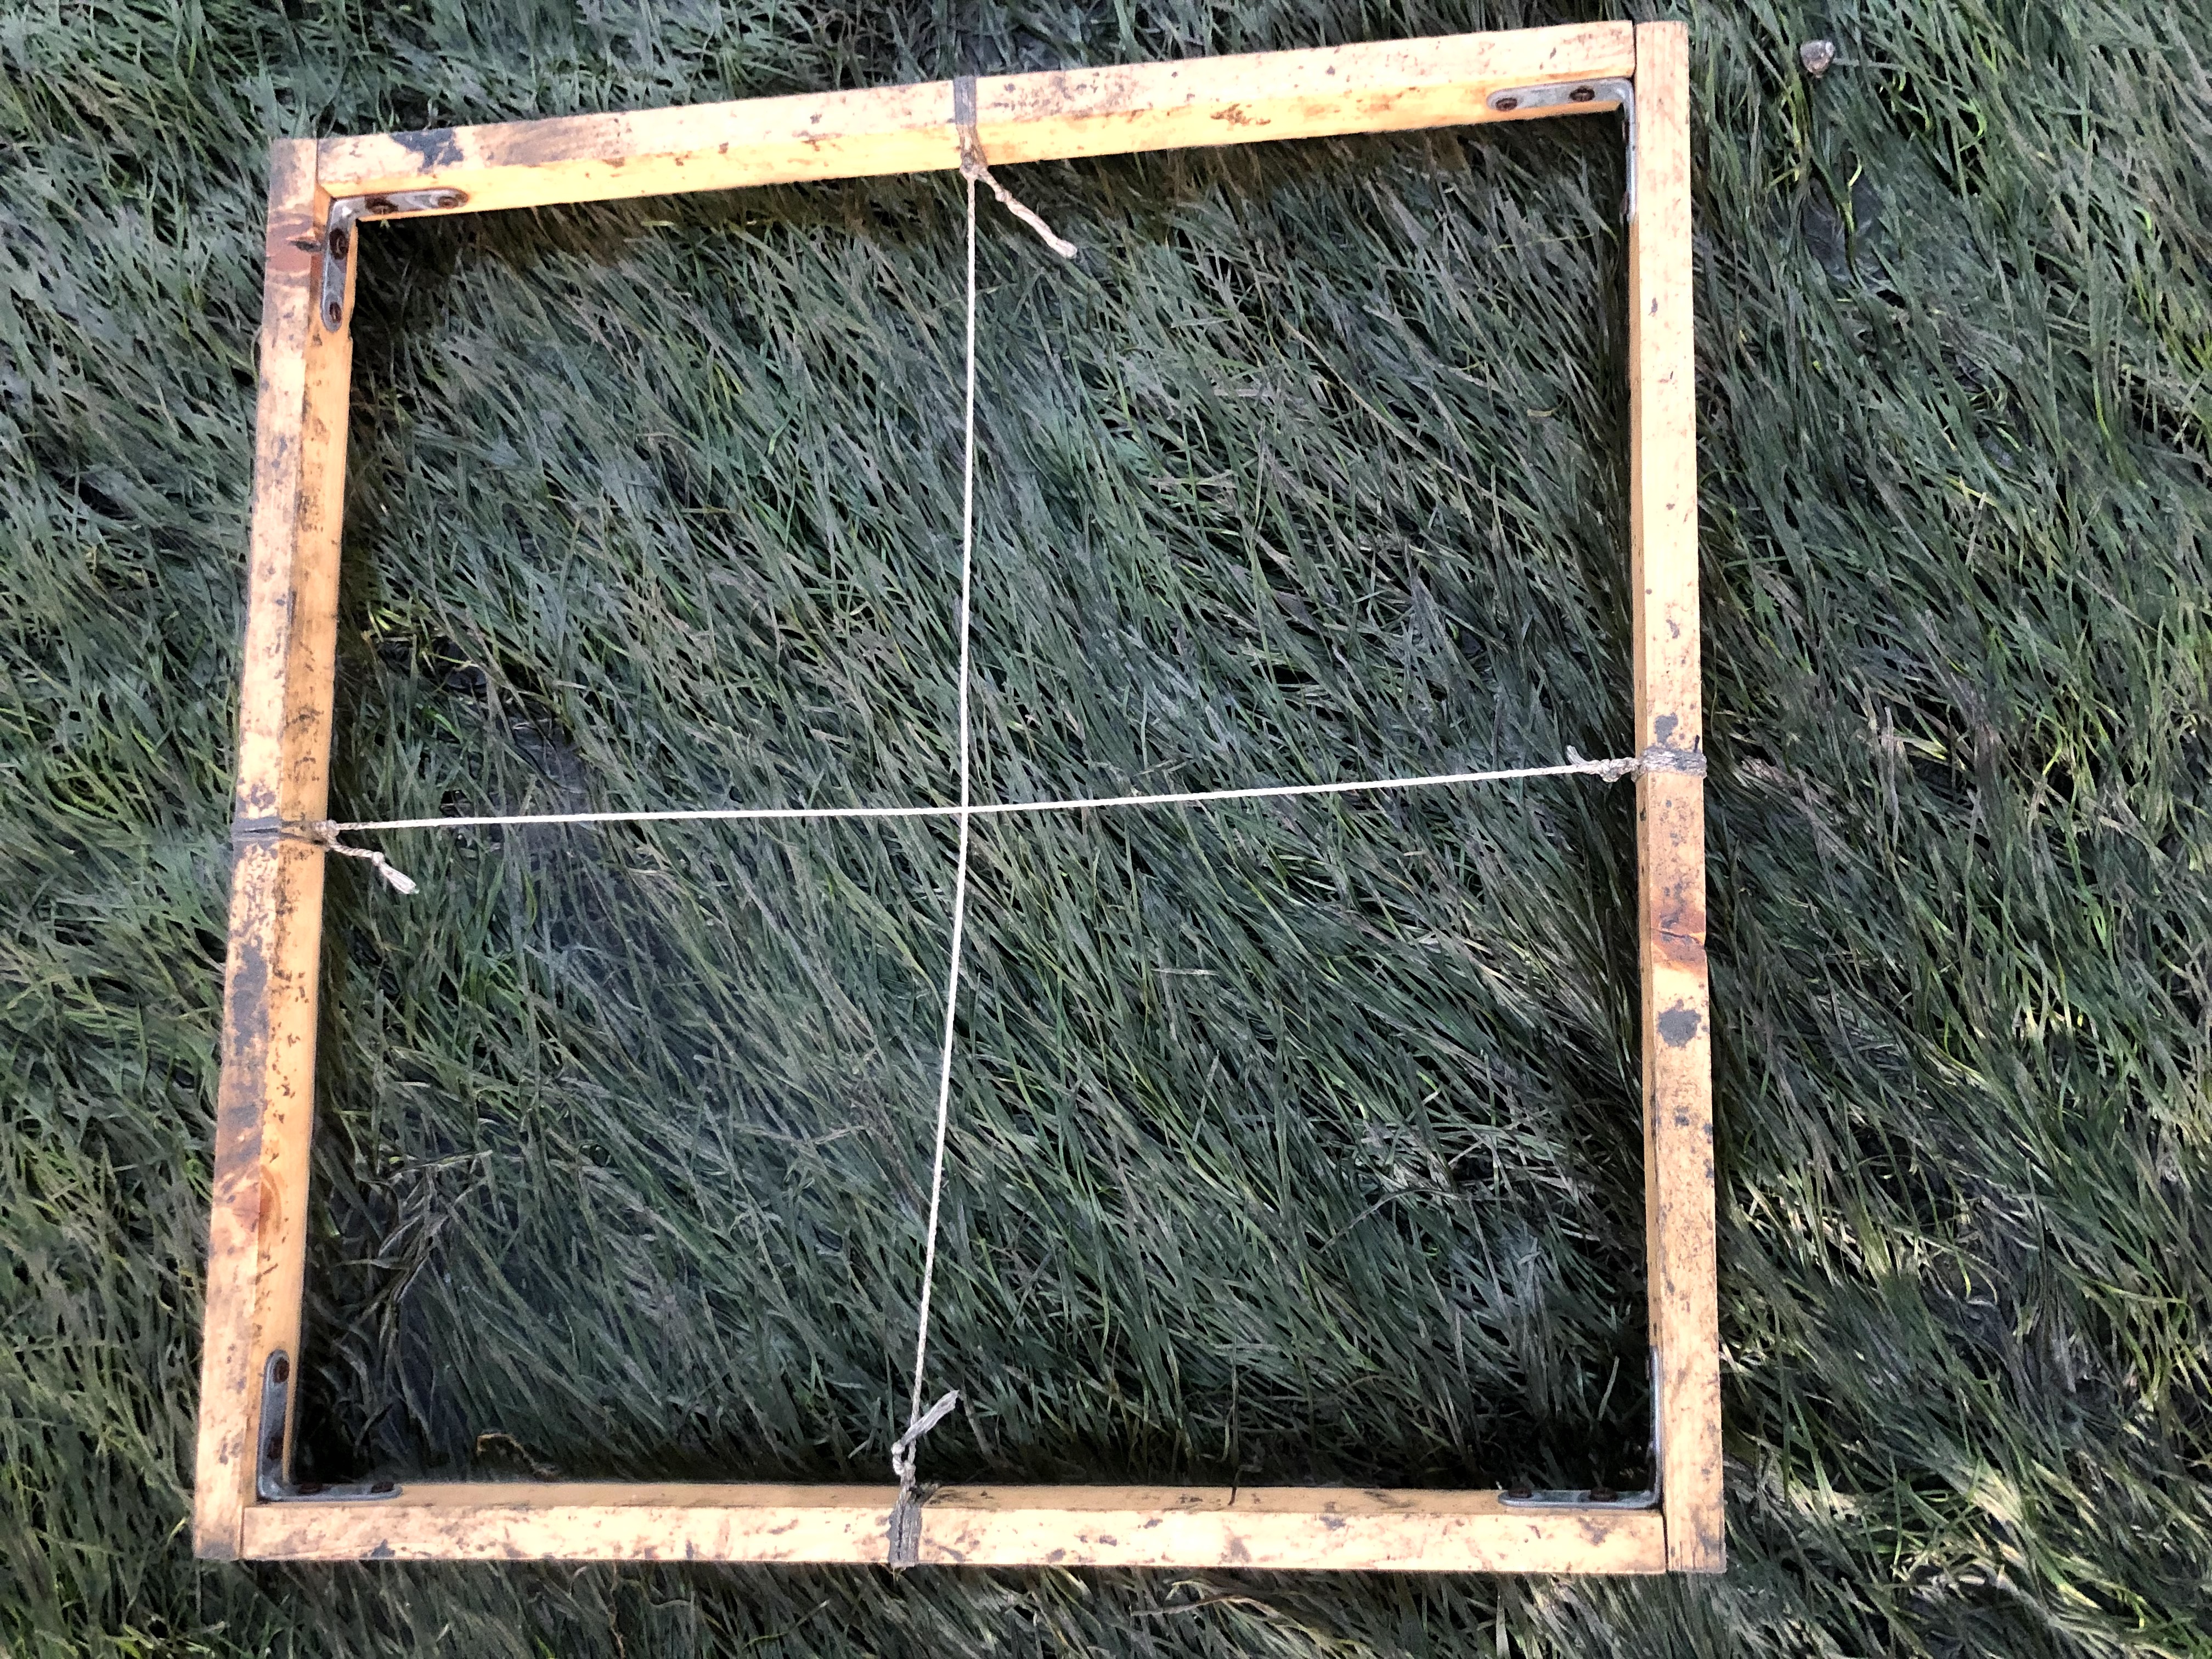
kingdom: Plantae
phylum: Tracheophyta
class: Liliopsida
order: Alismatales
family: Zosteraceae
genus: Zostera
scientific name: Zostera noltii
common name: Dwarf eelgrass
